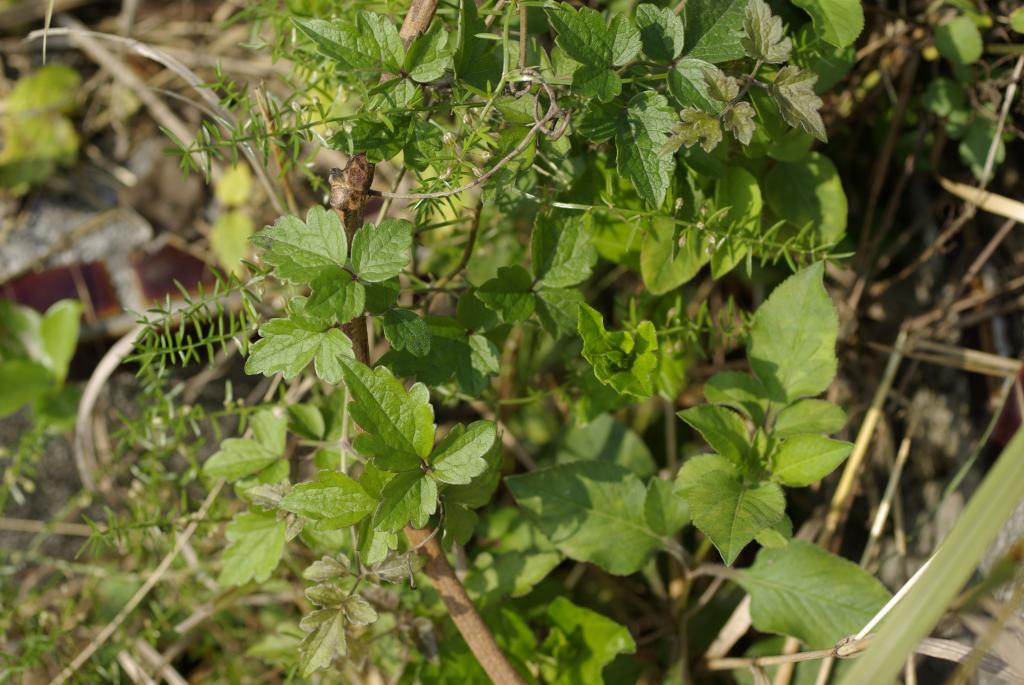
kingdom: Plantae
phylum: Tracheophyta
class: Magnoliopsida
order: Ranunculales
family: Ranunculaceae
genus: Clematis
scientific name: Clematis grata
